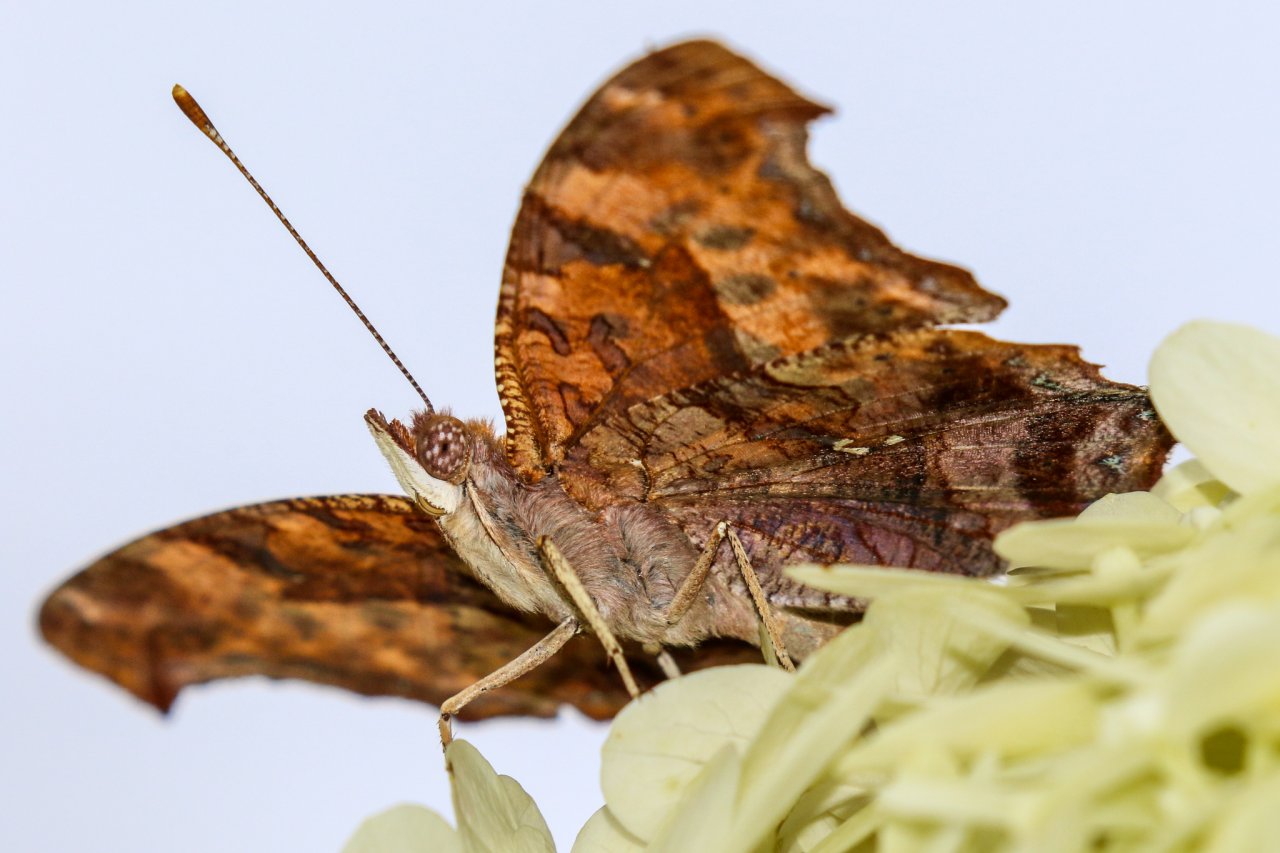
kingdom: Animalia
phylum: Arthropoda
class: Insecta
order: Lepidoptera
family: Nymphalidae
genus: Polygonia
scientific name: Polygonia interrogationis
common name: Question Mark
